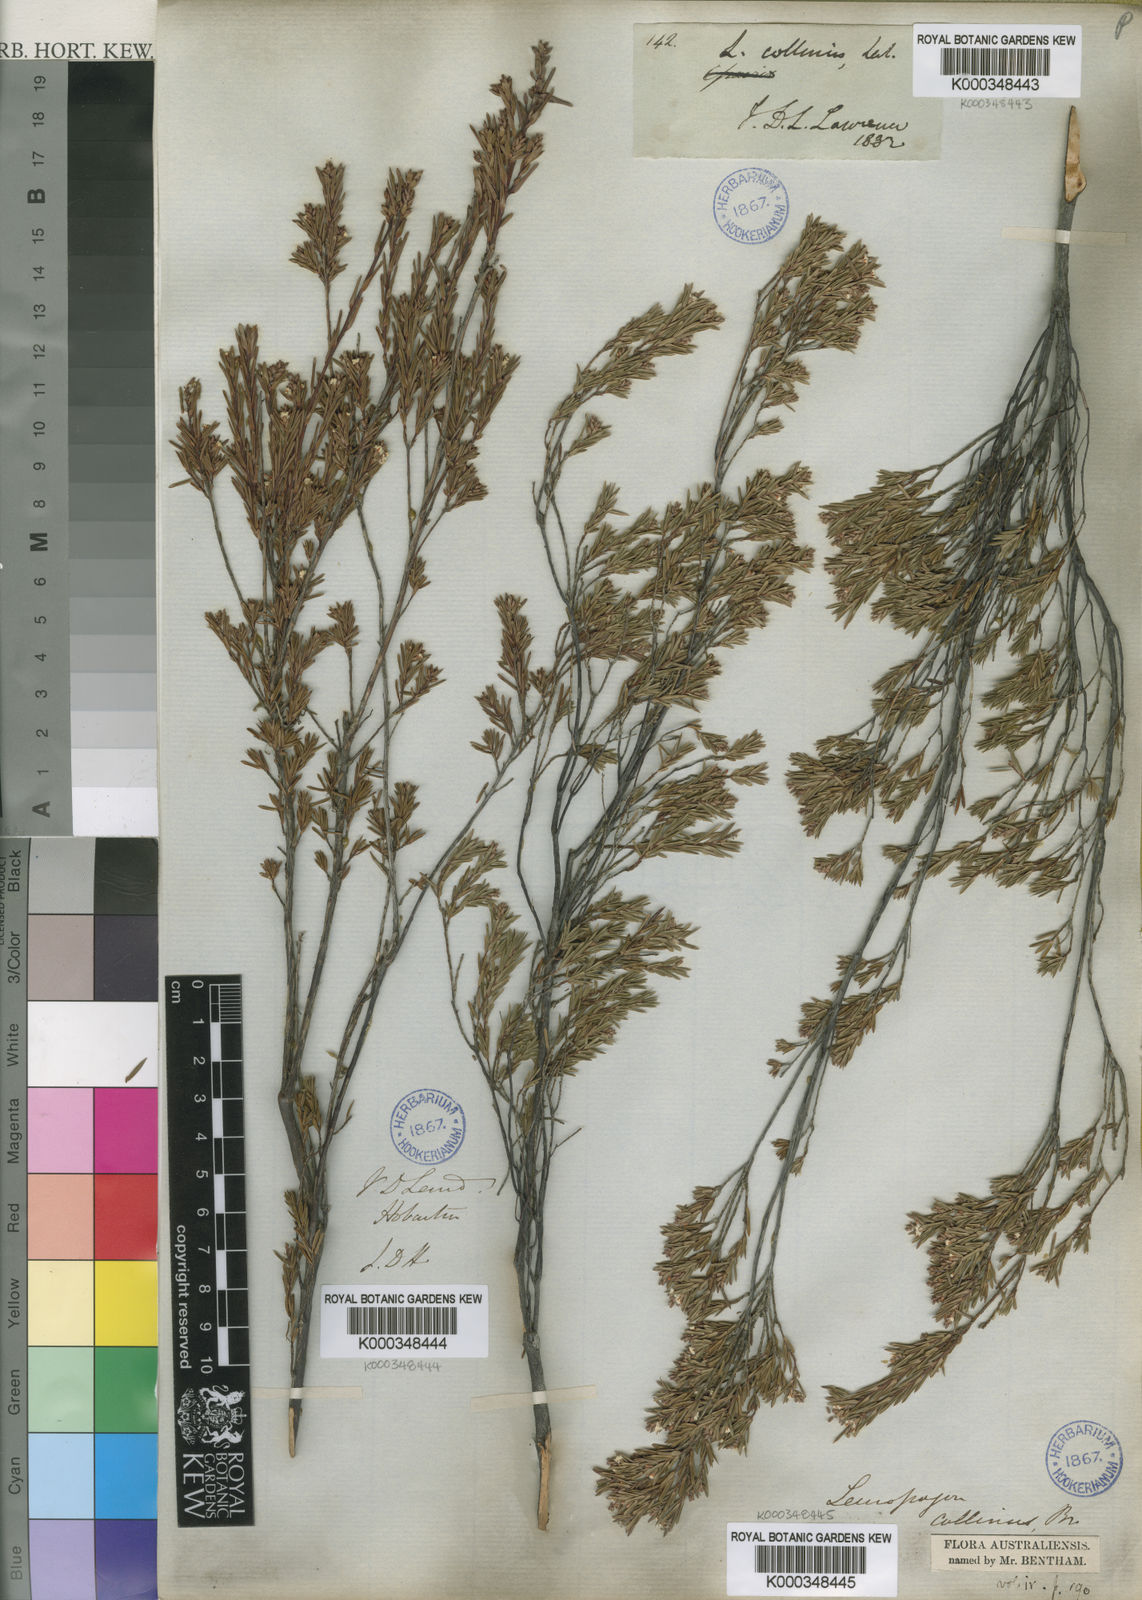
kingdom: Plantae
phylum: Tracheophyta
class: Magnoliopsida
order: Ericales
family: Ericaceae
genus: Leucopogon
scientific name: Leucopogon collinus
